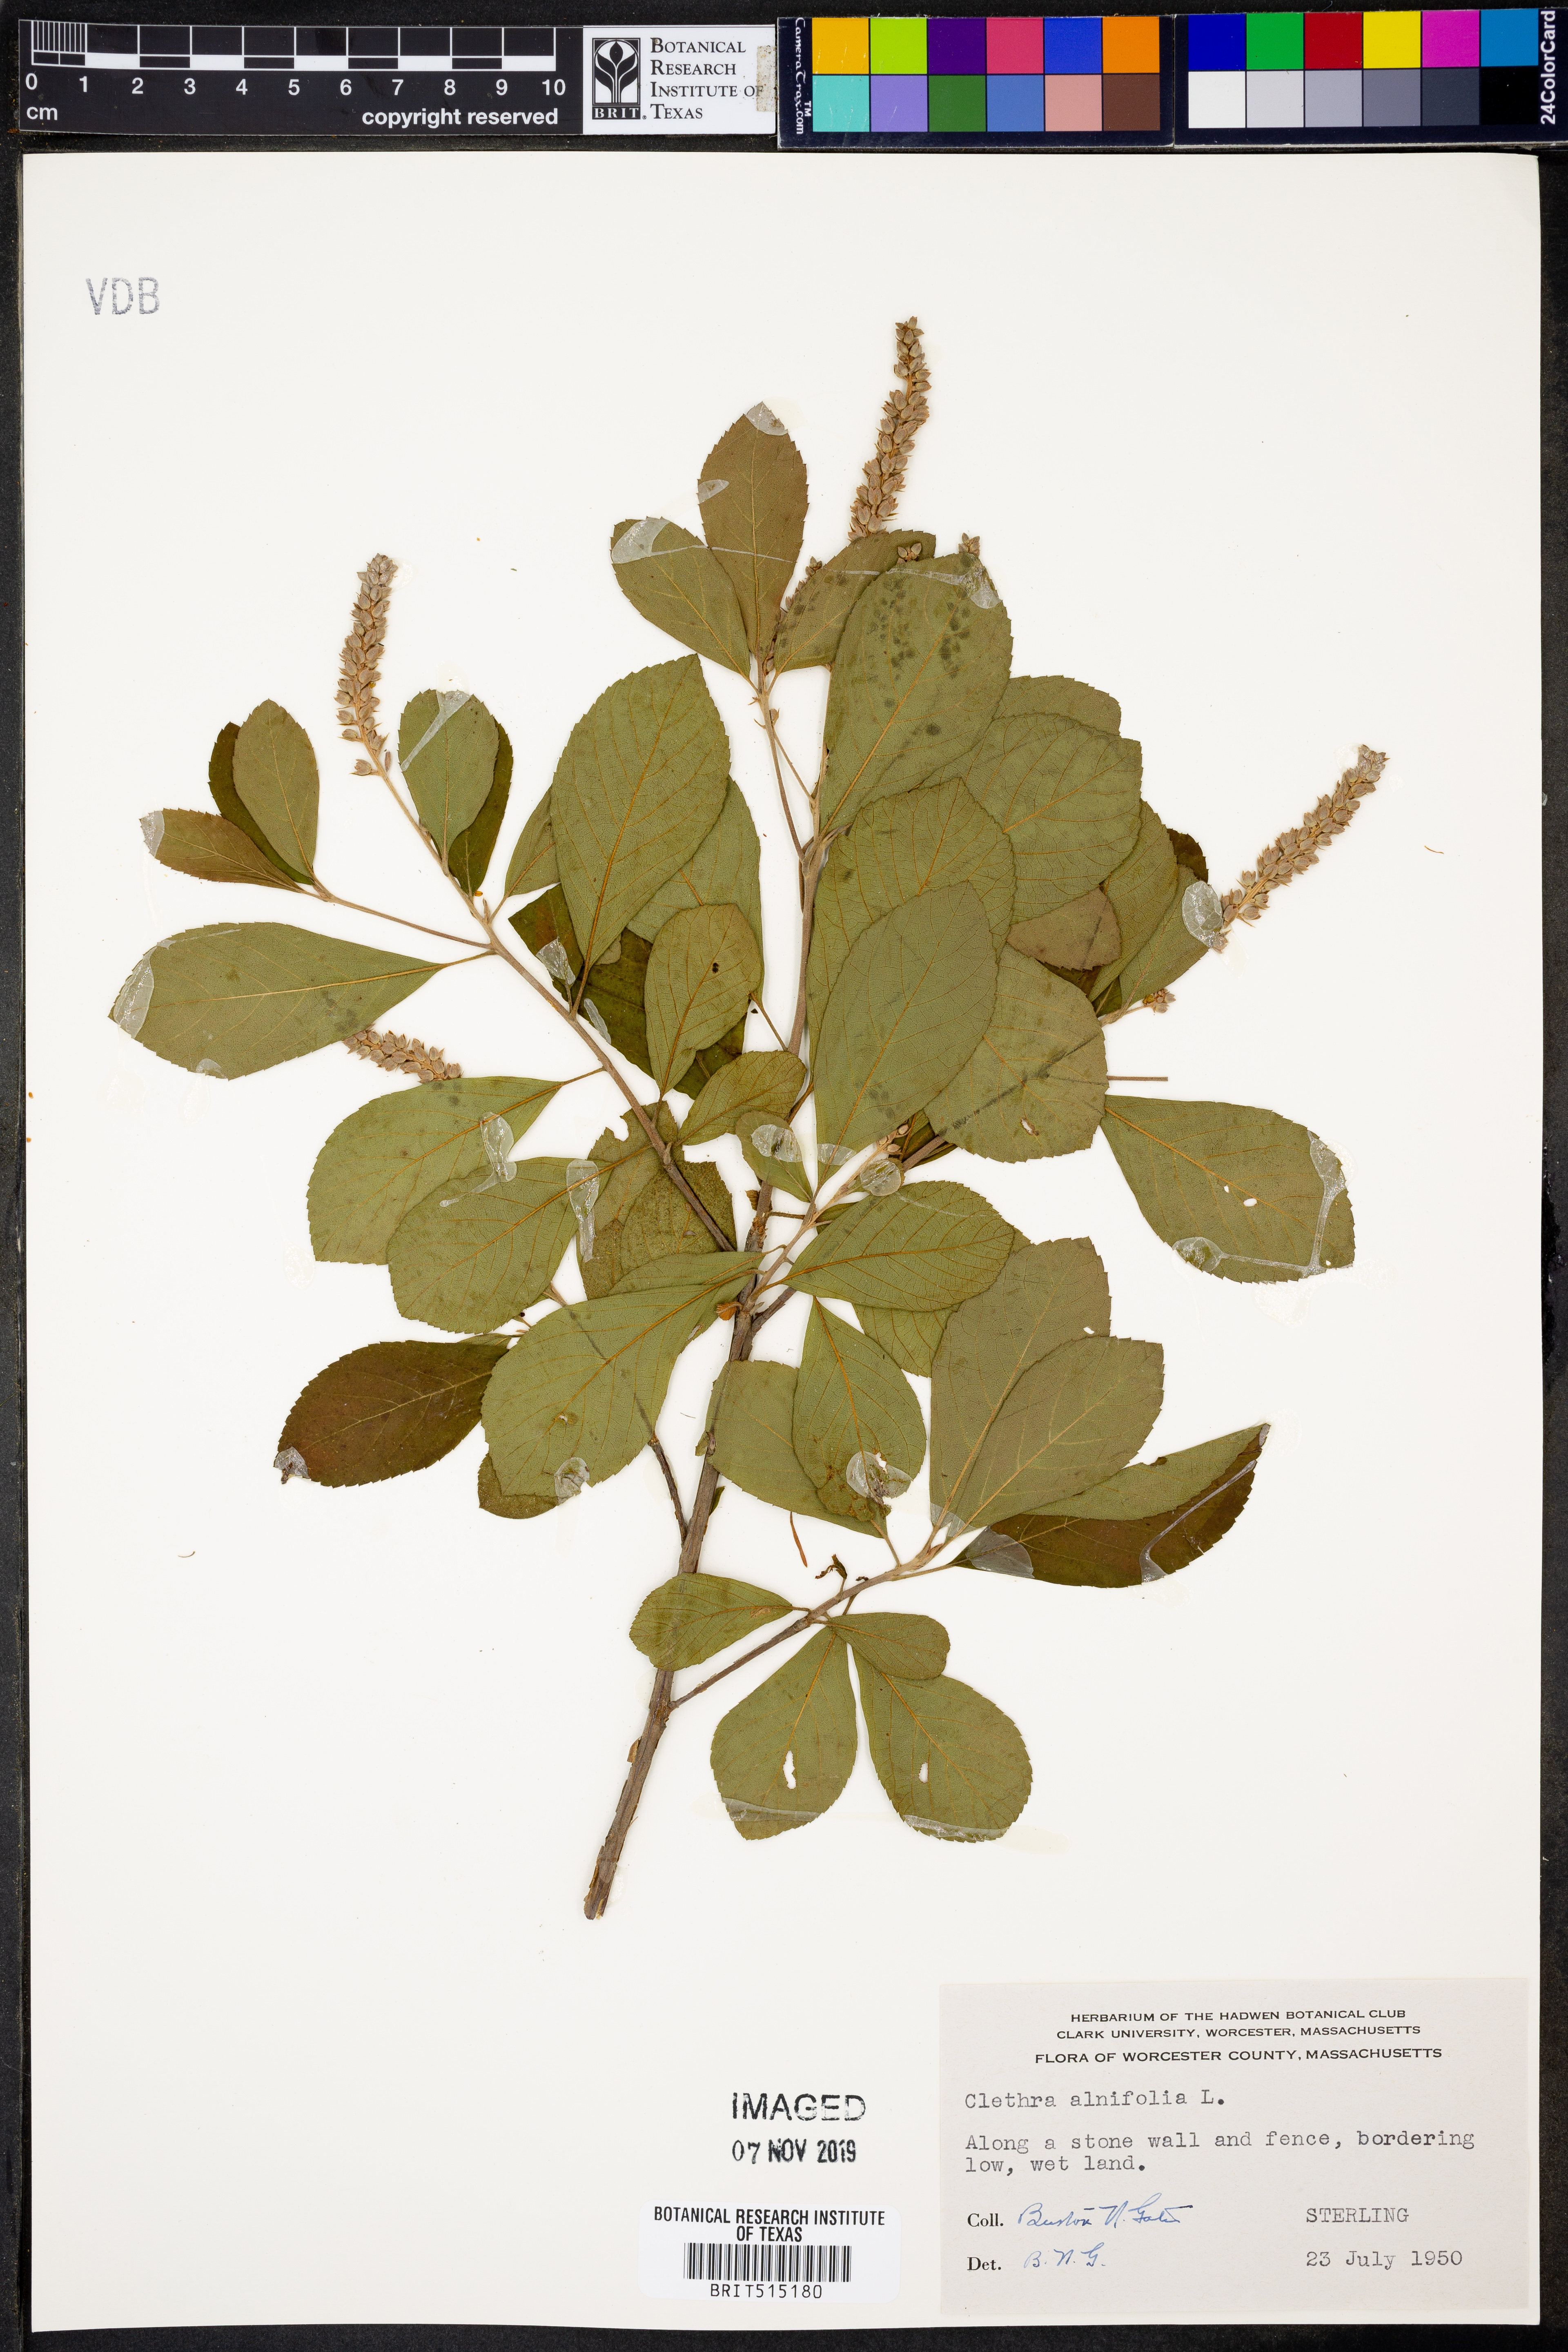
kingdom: Plantae
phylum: Tracheophyta
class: Magnoliopsida
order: Ericales
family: Clethraceae
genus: Clethra
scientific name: Clethra alnifolia
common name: Sweet pepperbush
